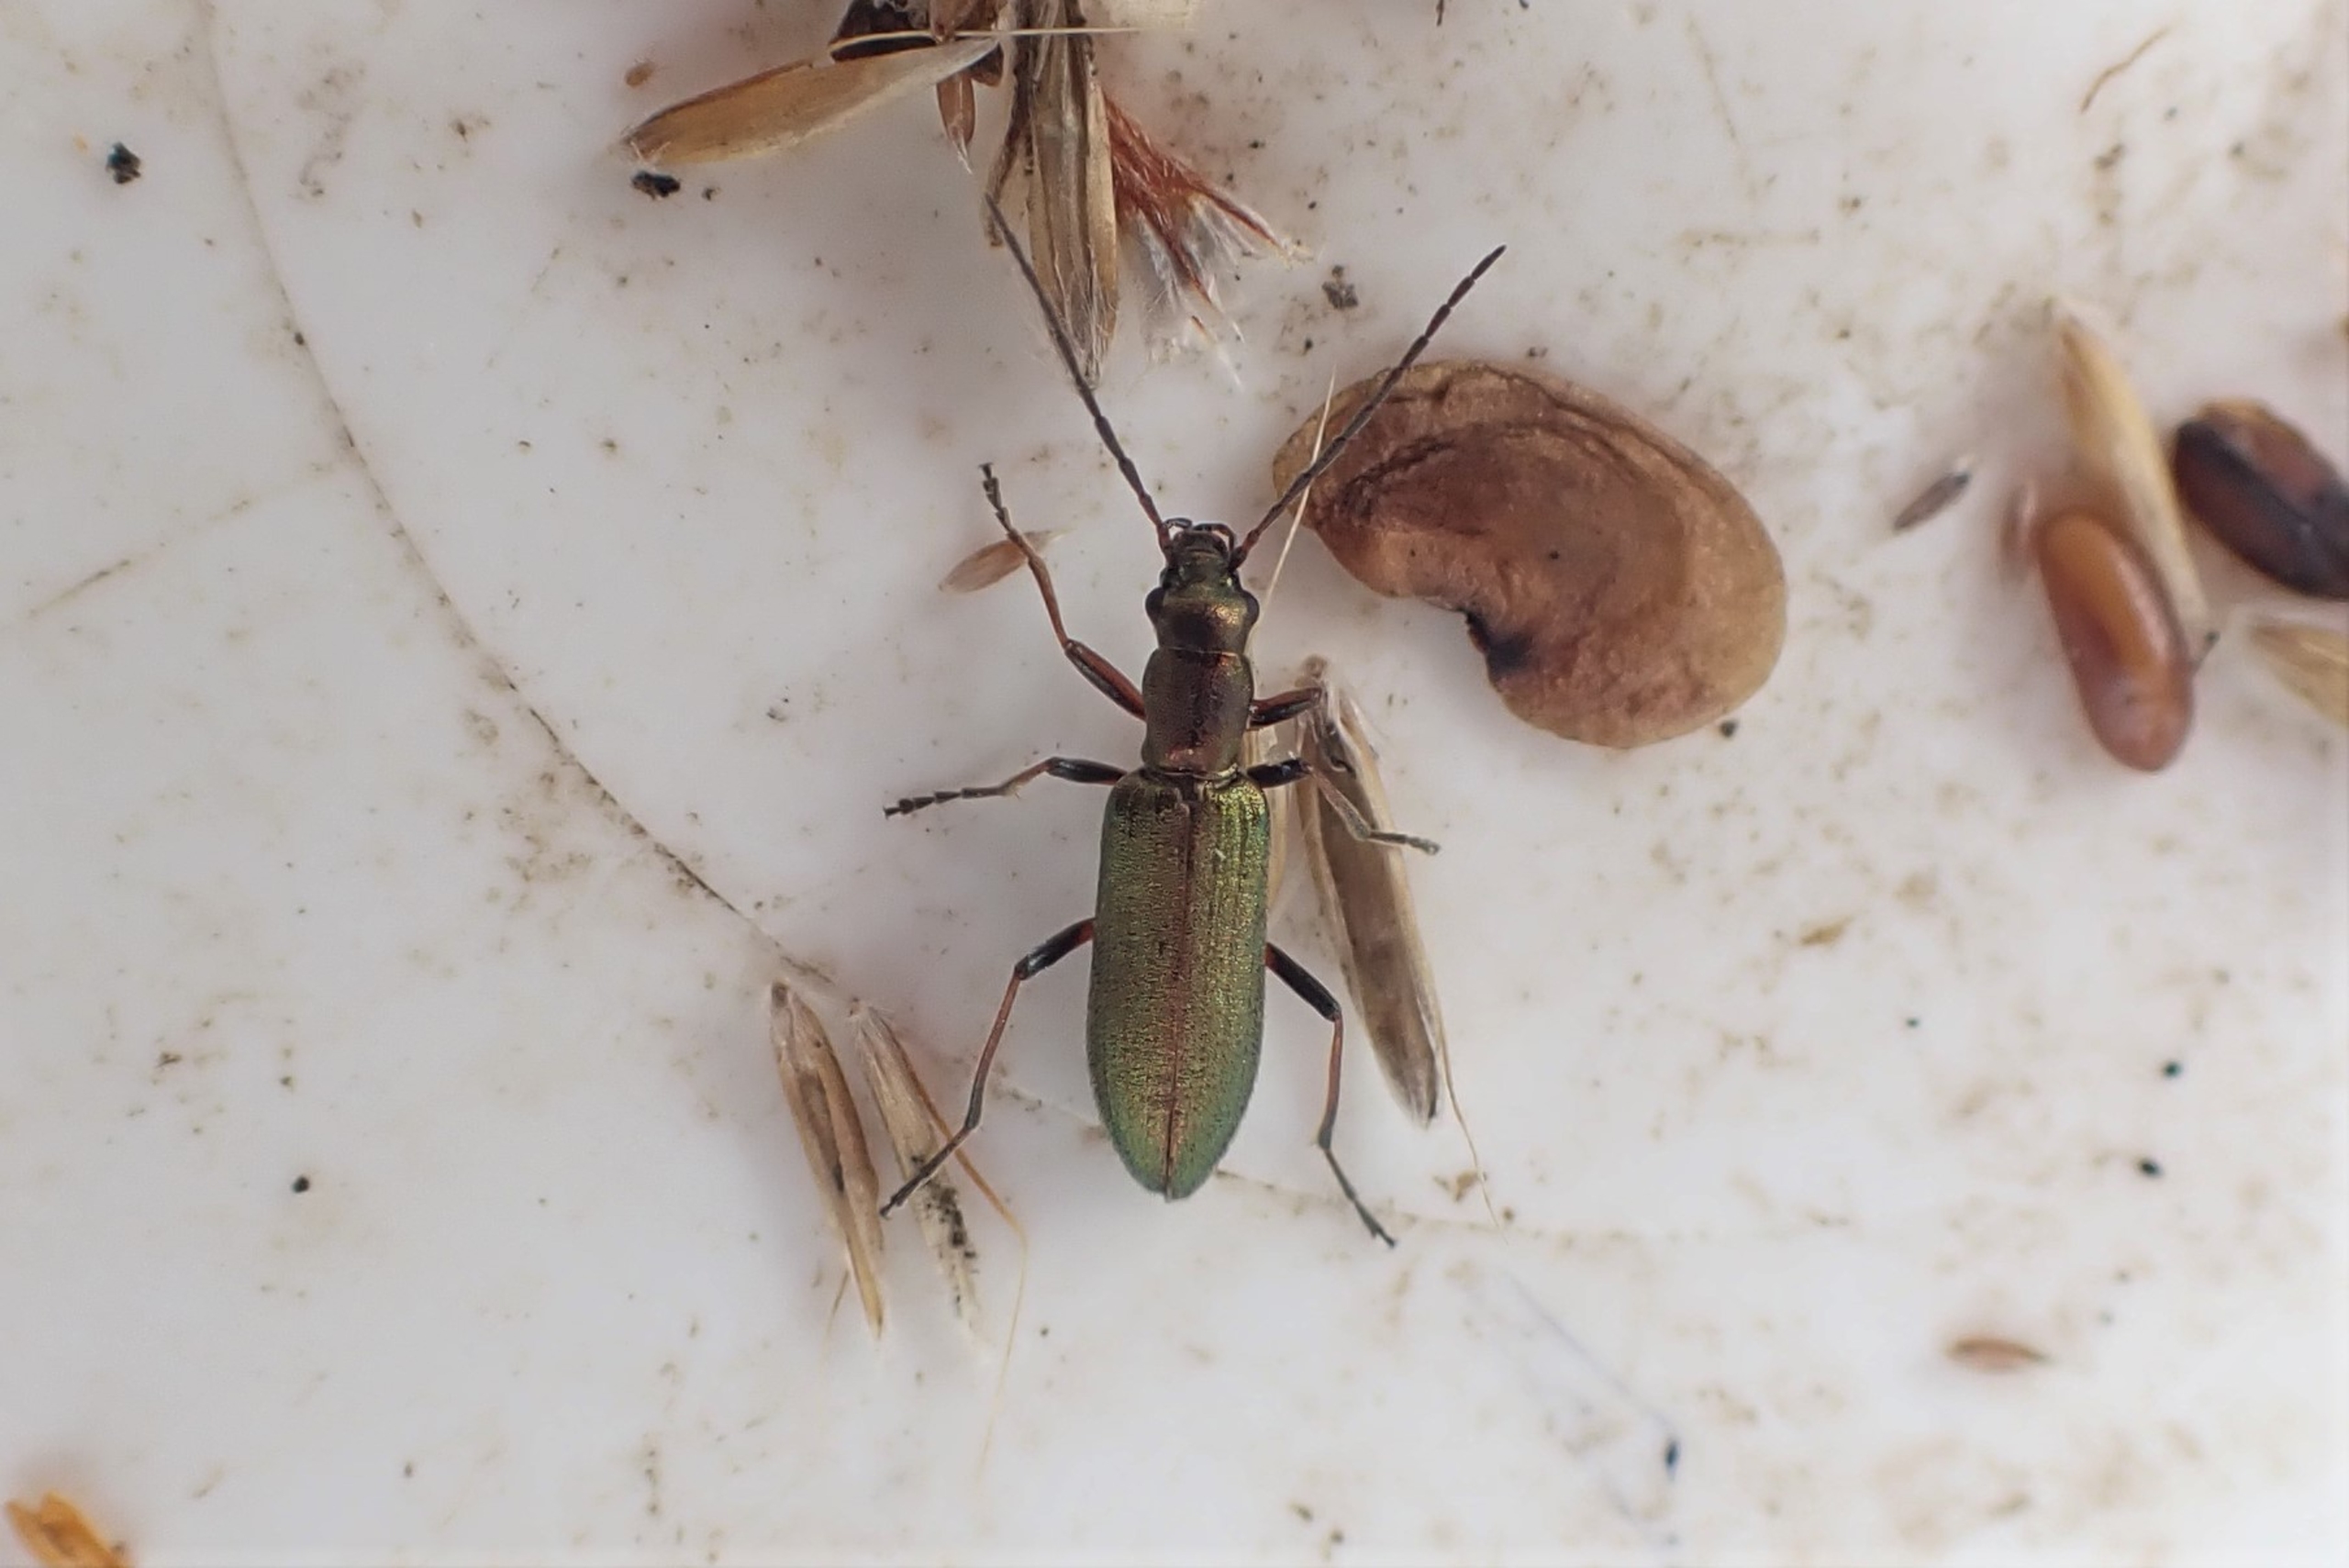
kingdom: Animalia
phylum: Arthropoda
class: Insecta
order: Coleoptera
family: Oedemeridae
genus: Chrysanthia
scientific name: Chrysanthia geniculata
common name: Grøn solbille
